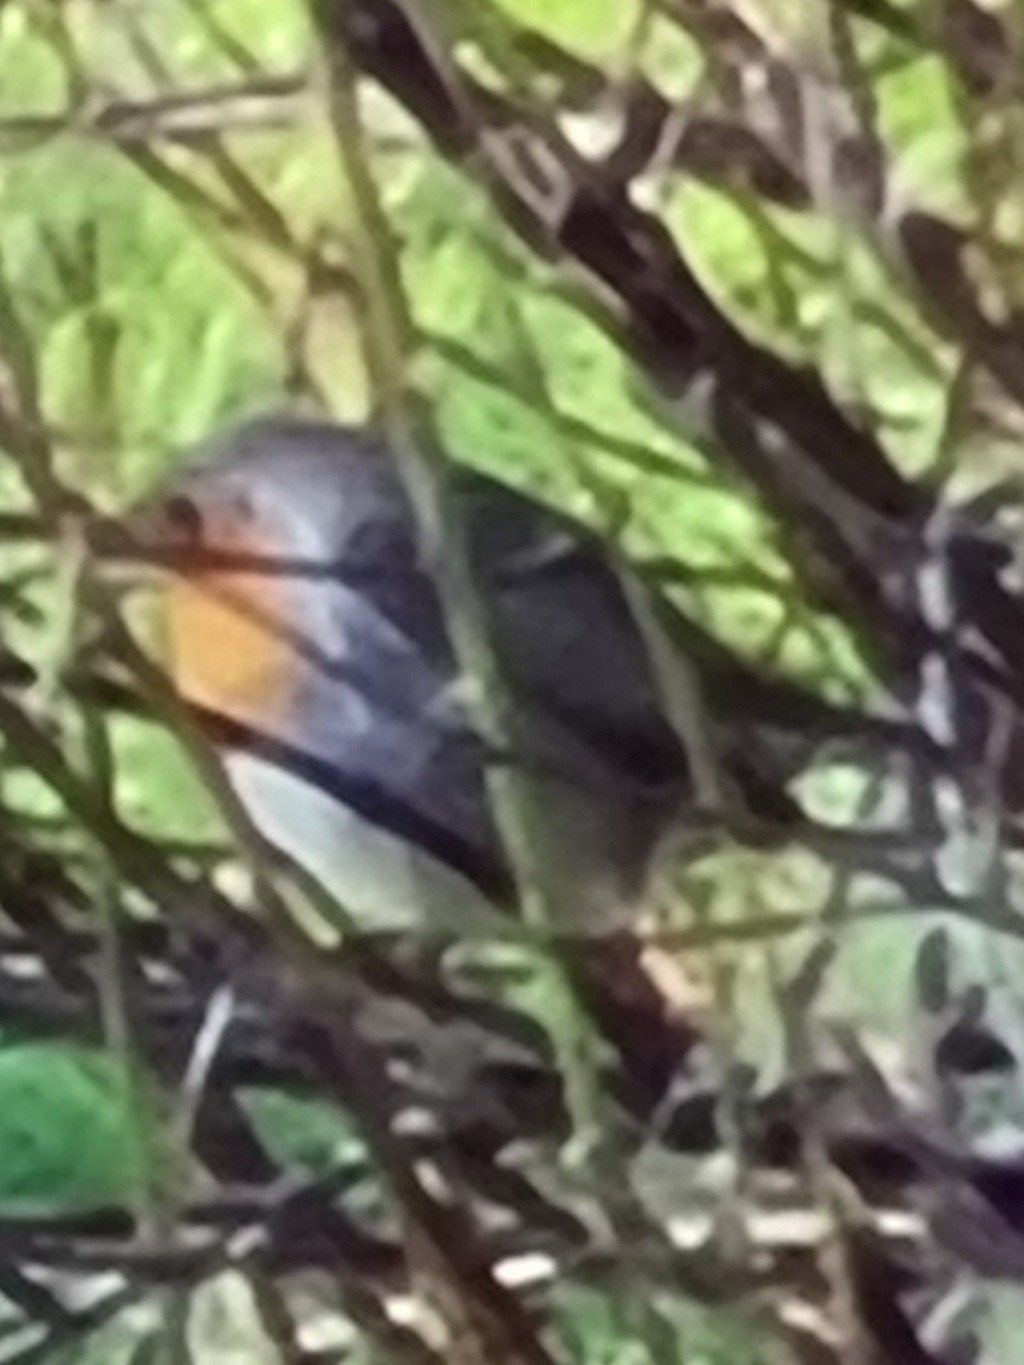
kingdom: Animalia
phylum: Chordata
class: Aves
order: Passeriformes
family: Muscicapidae
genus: Erithacus
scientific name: Erithacus rubecula
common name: Rødhals/rødkælk
